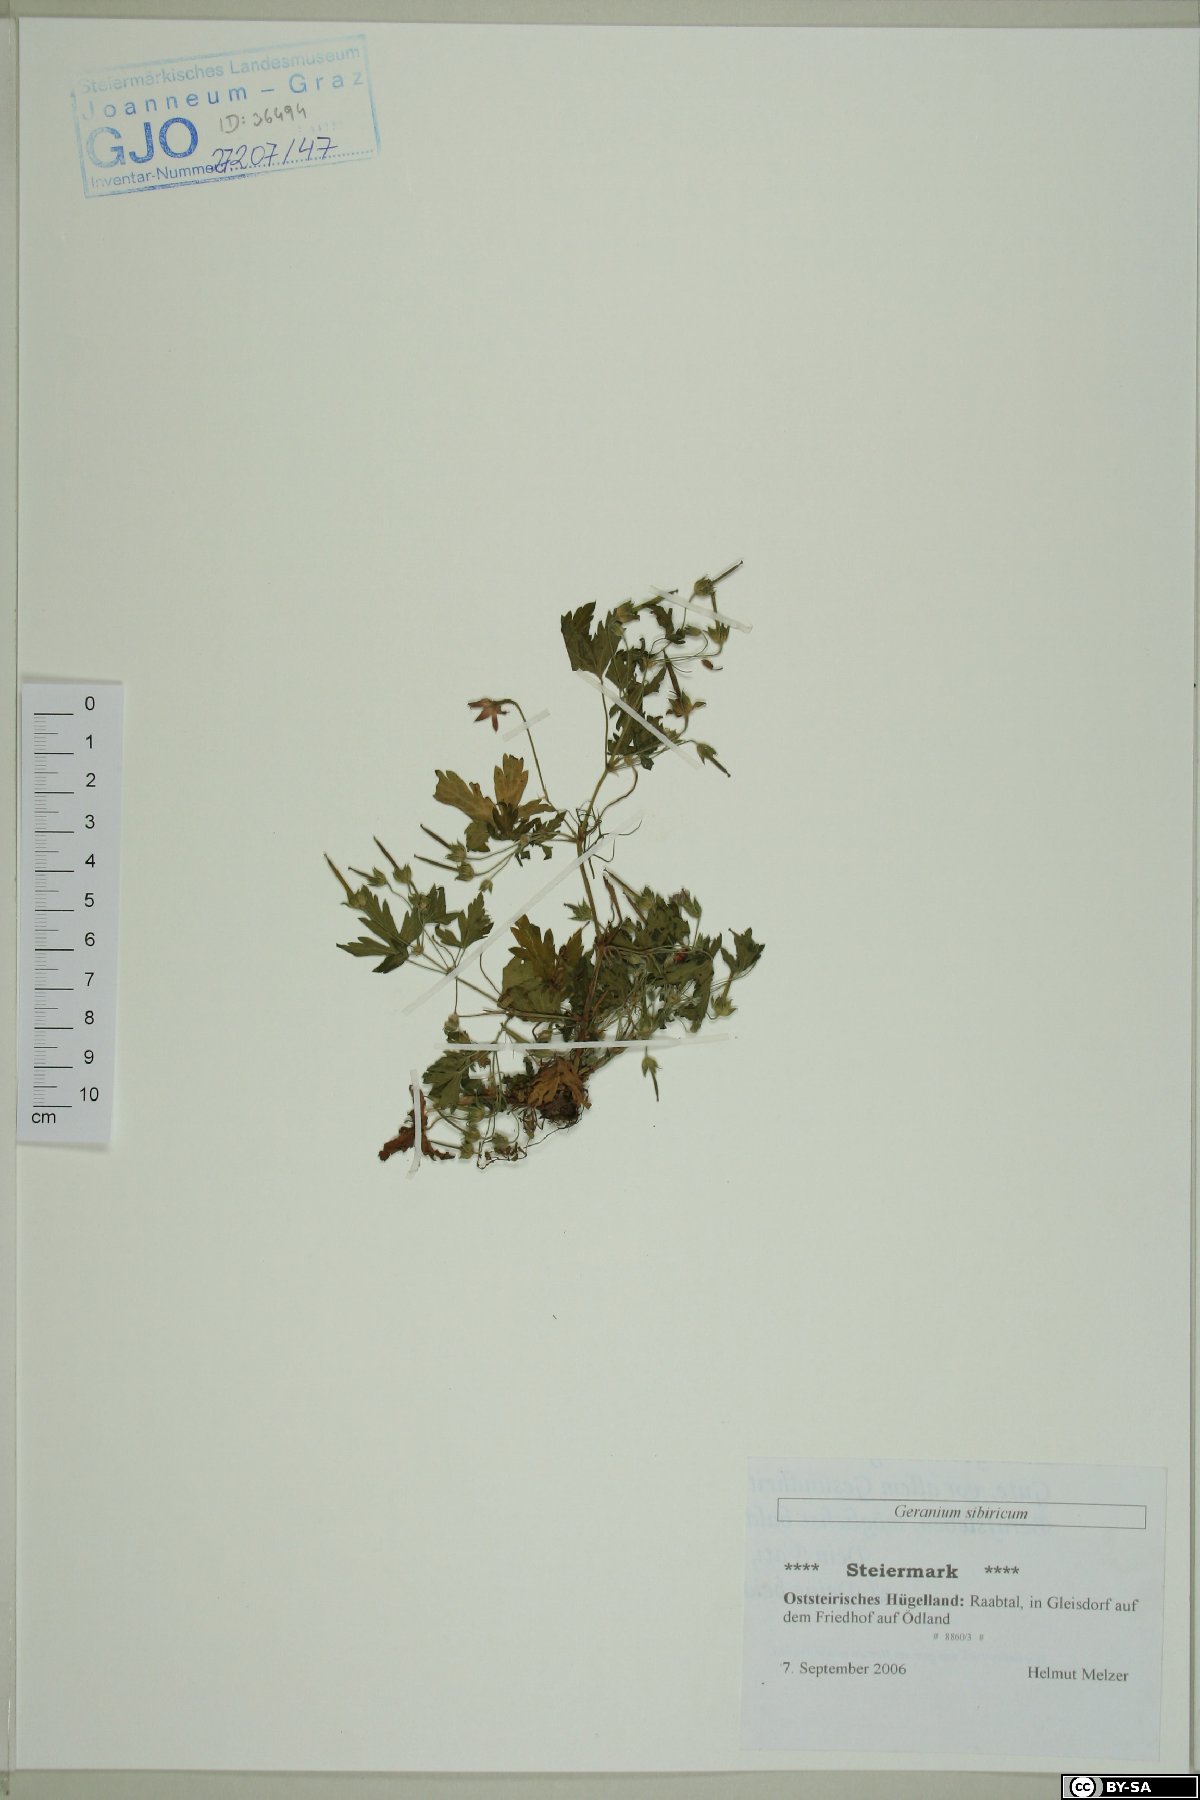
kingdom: Plantae
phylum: Tracheophyta
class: Magnoliopsida
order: Geraniales
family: Geraniaceae
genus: Geranium
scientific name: Geranium sibiricum
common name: Siberian crane's-bill
